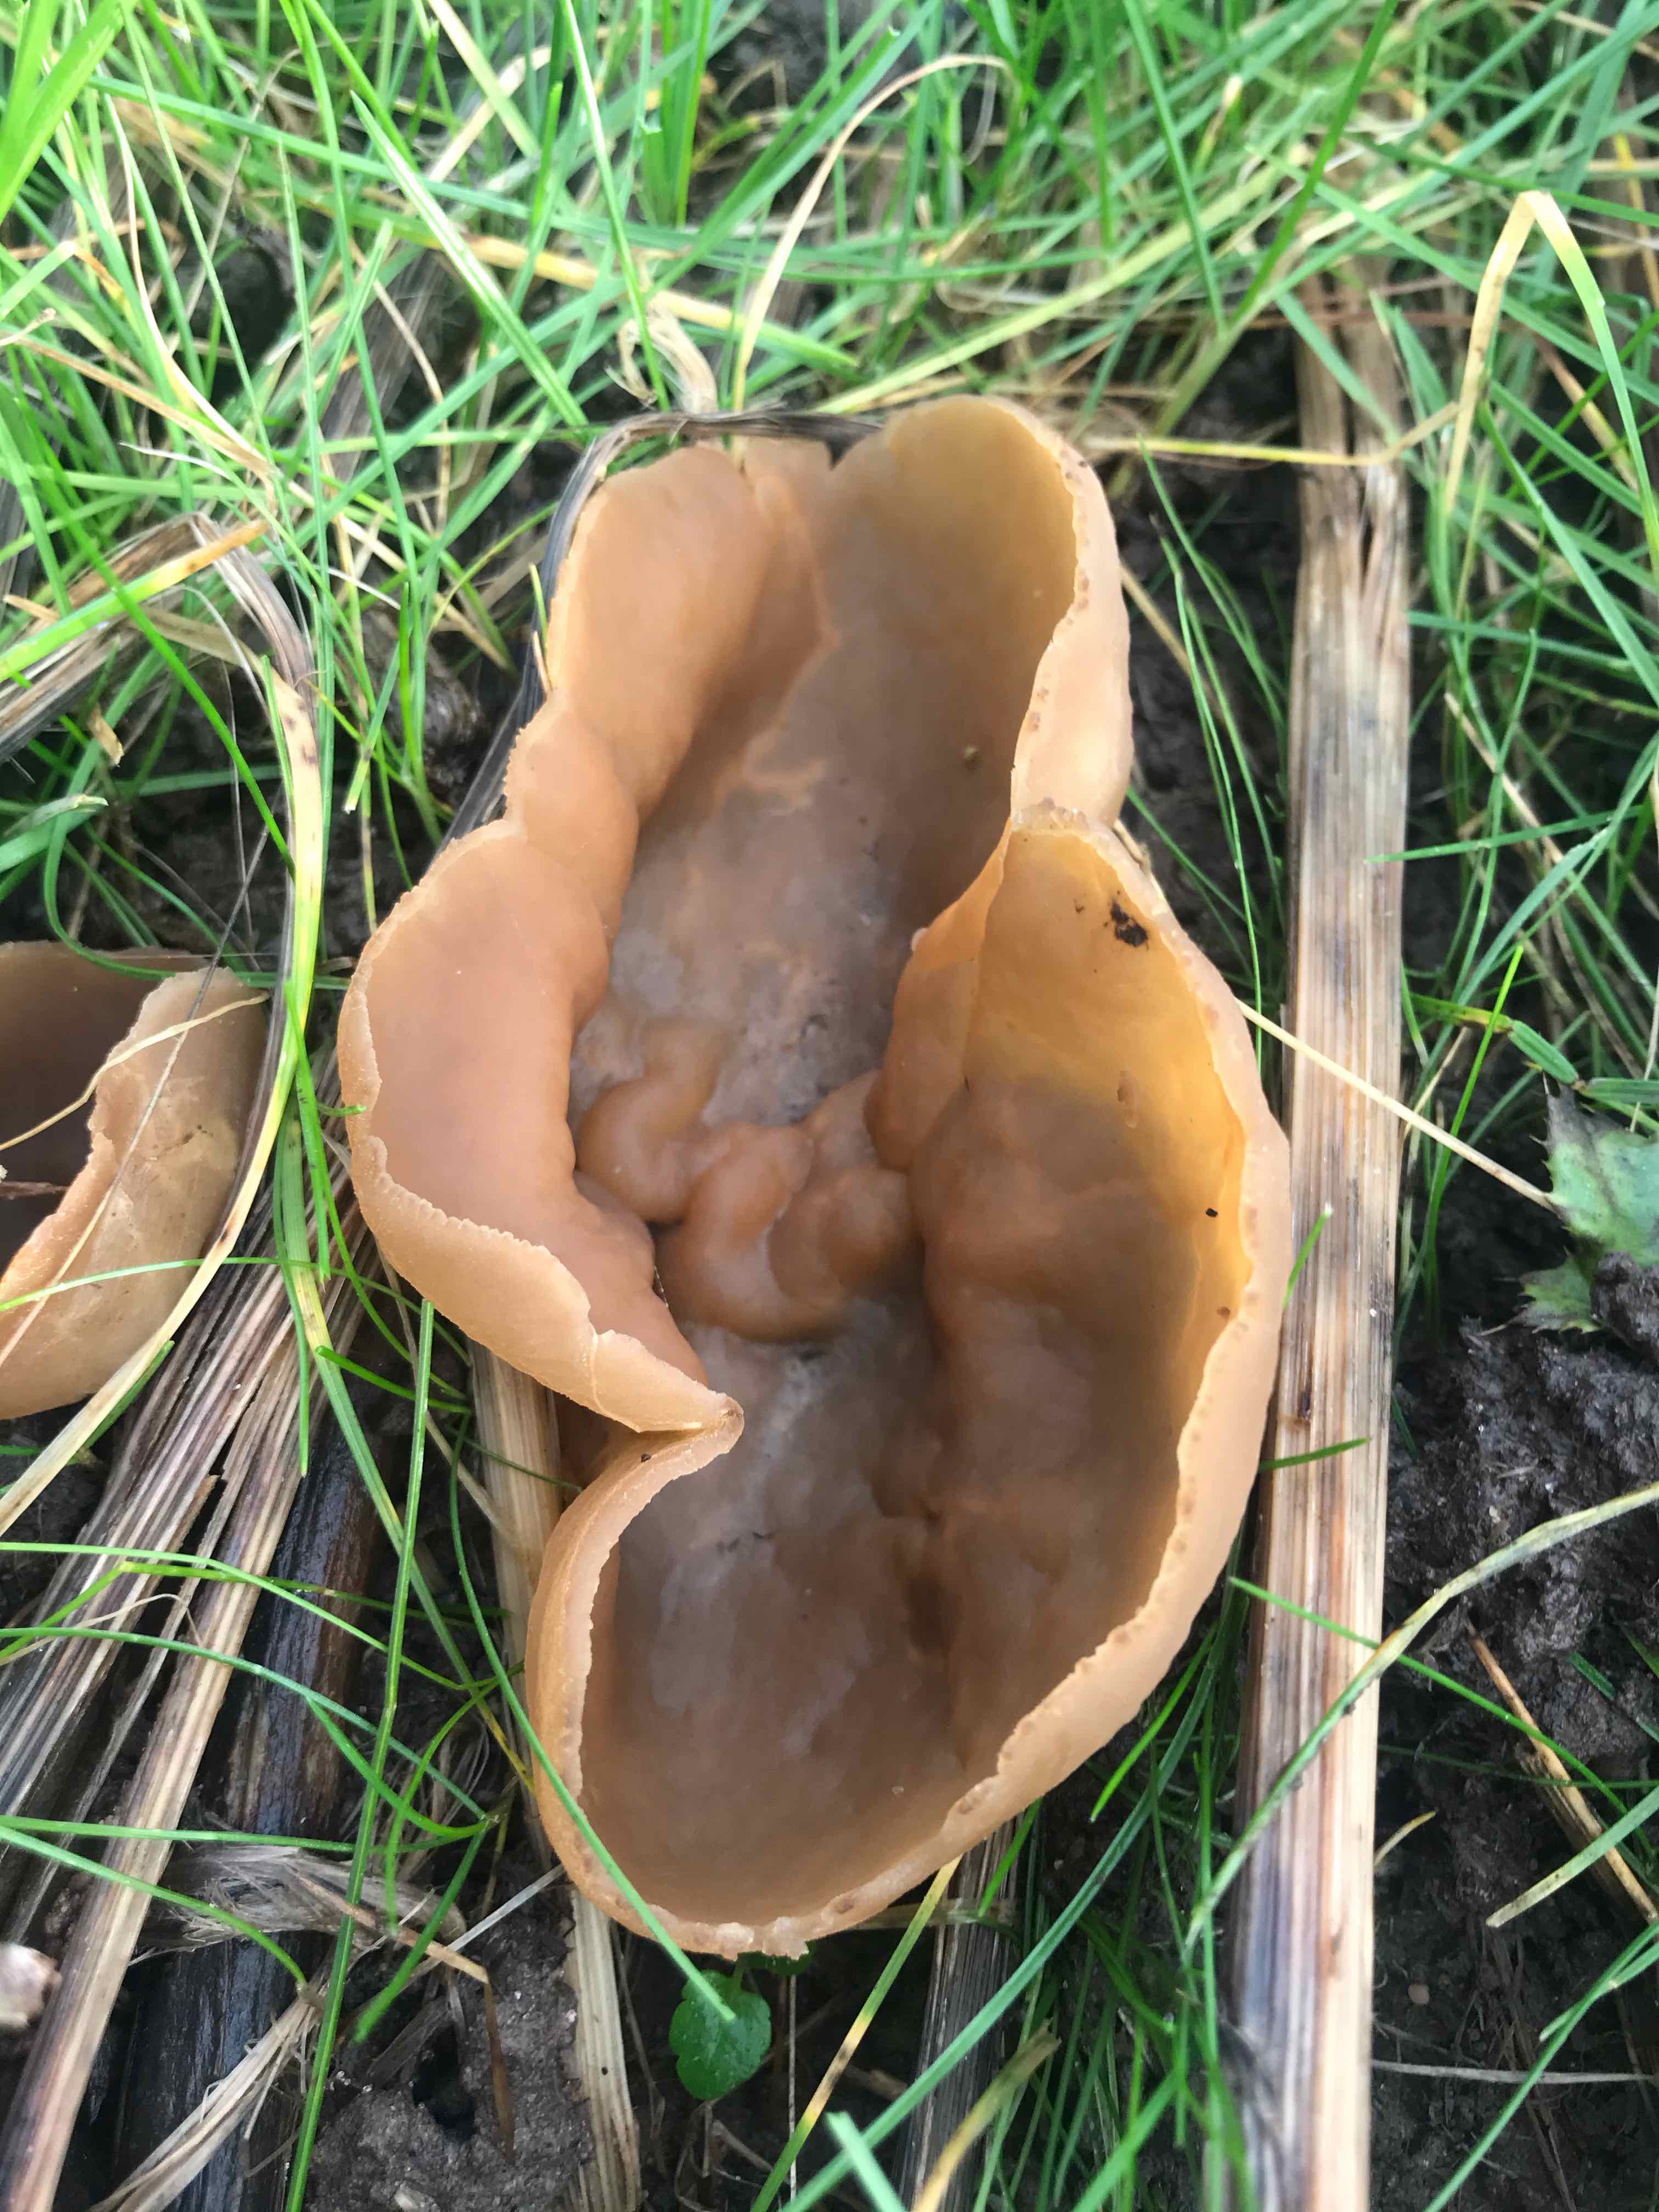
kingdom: Fungi
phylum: Ascomycota
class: Pezizomycetes
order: Pezizales
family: Pezizaceae
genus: Peziza
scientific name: Peziza
